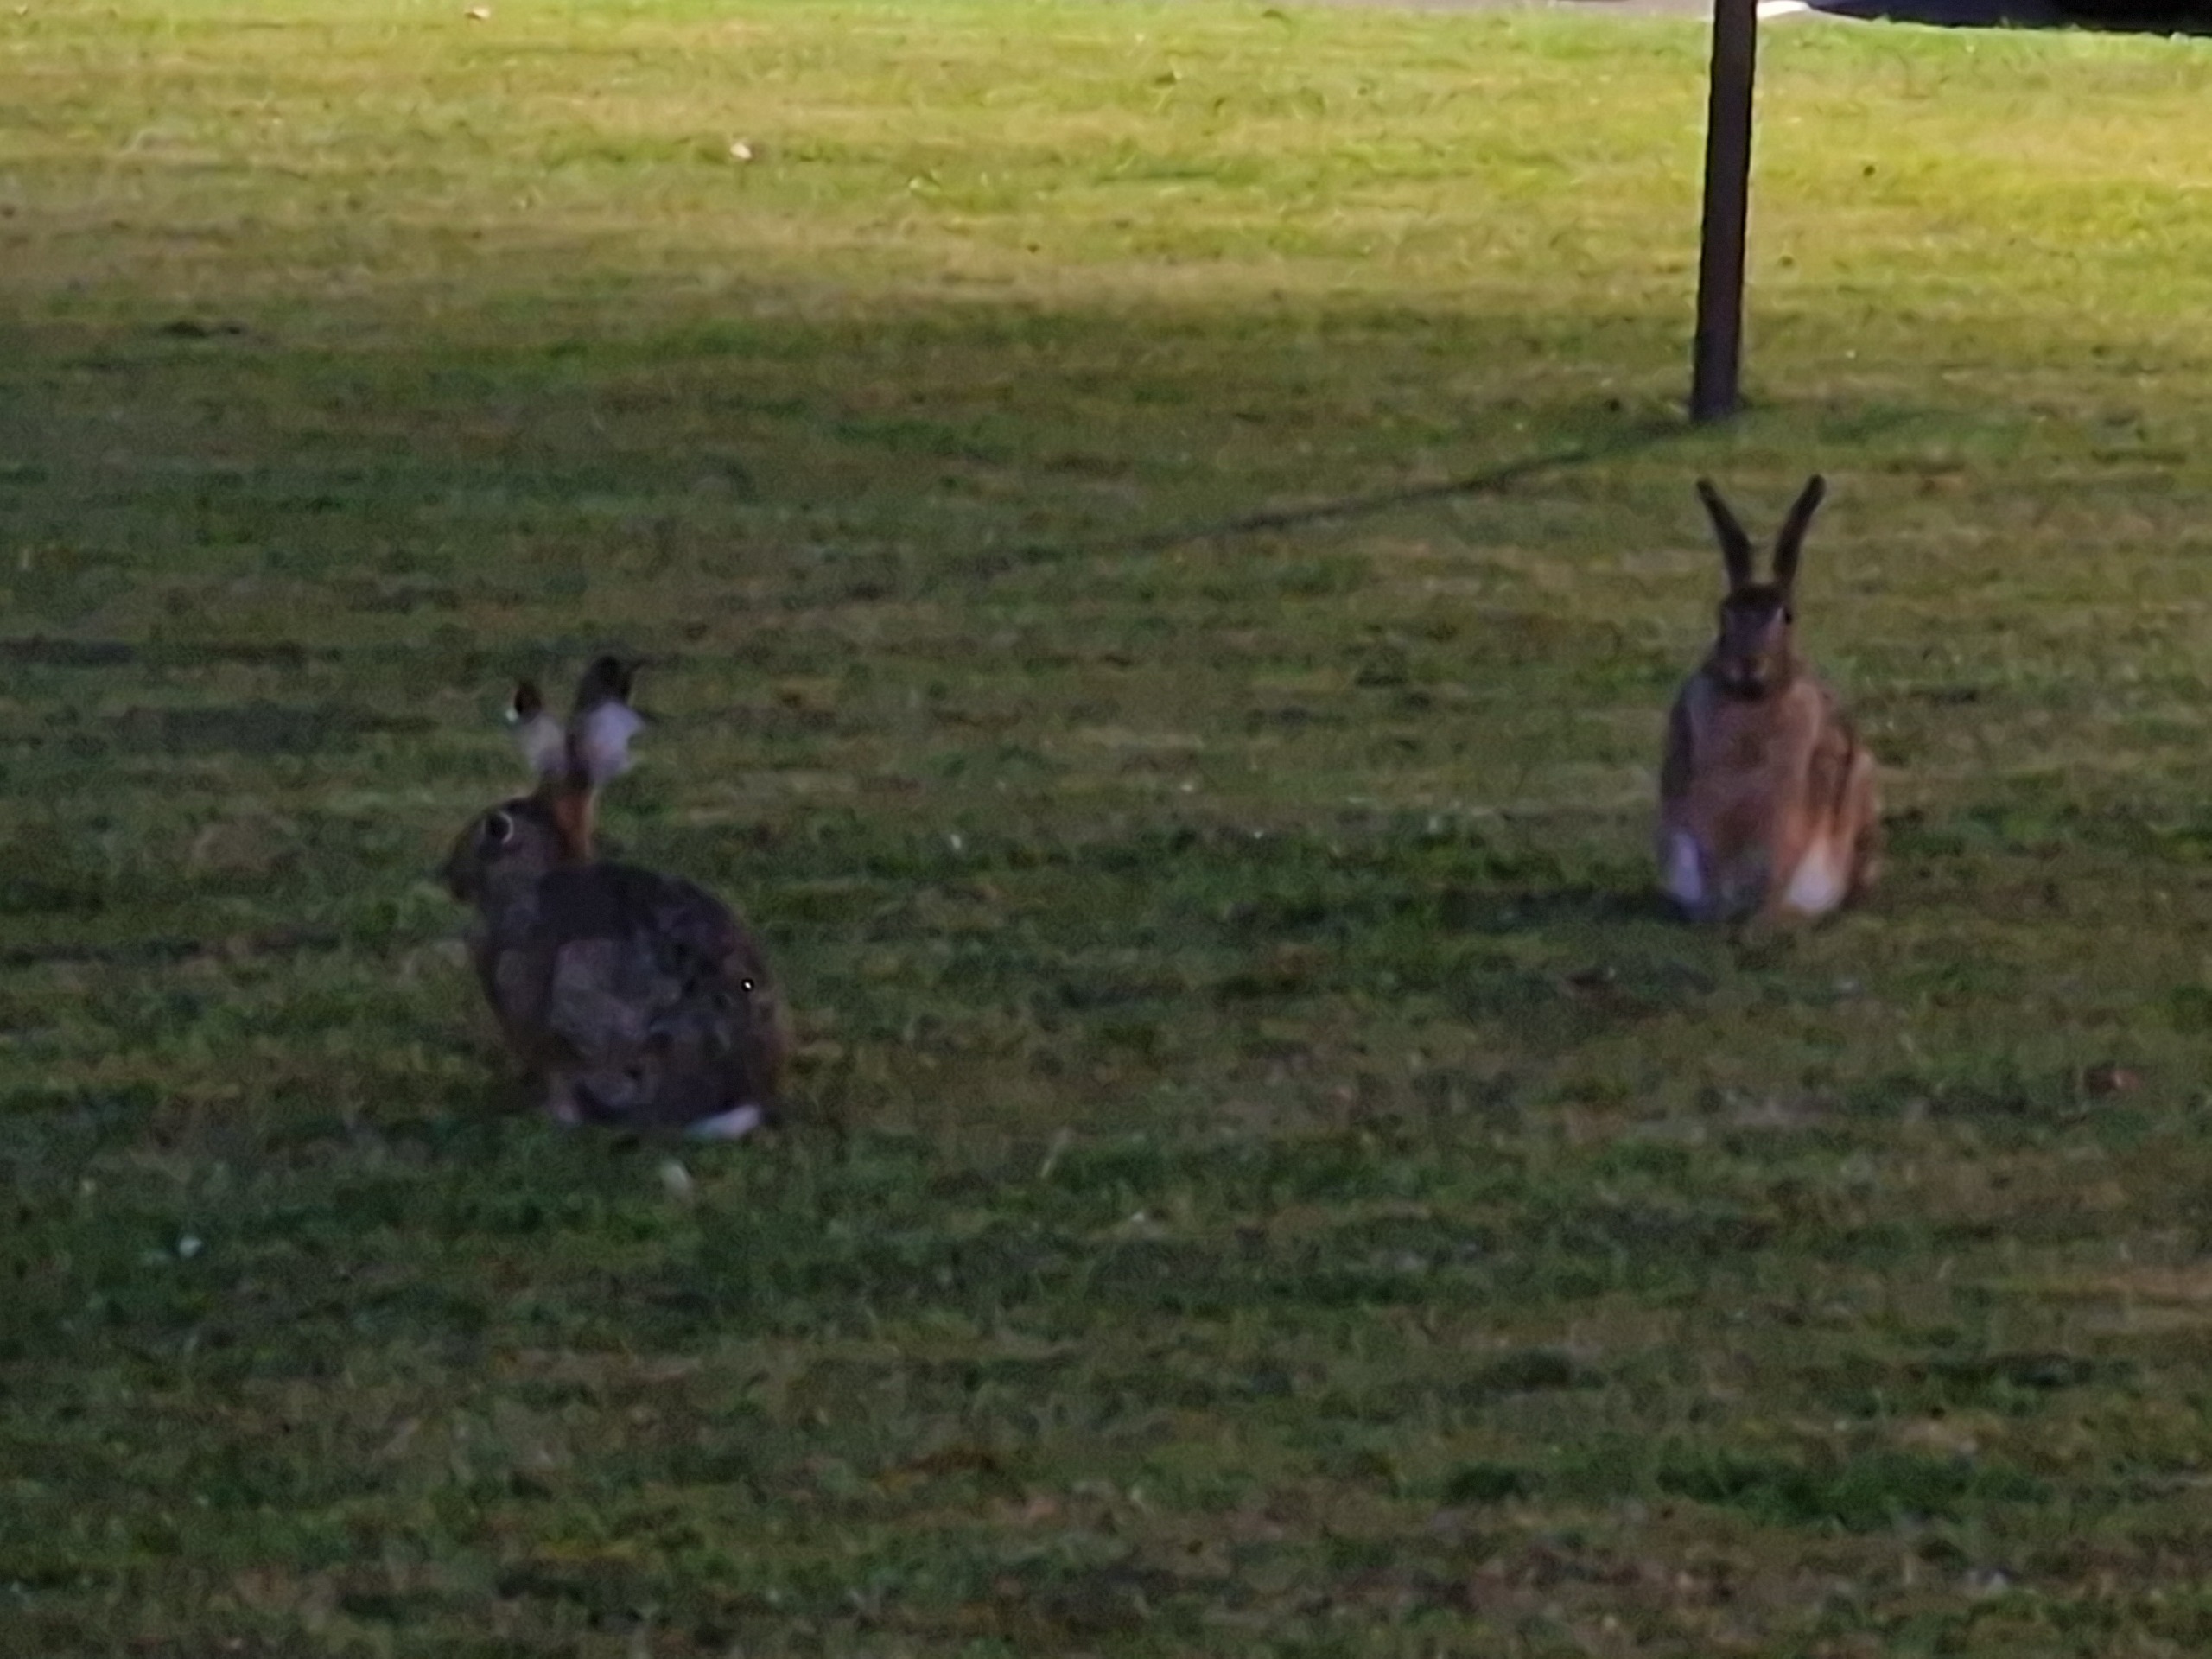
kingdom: Animalia
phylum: Chordata
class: Mammalia
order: Lagomorpha
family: Leporidae
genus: Lepus
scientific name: Lepus europaeus
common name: Hare
